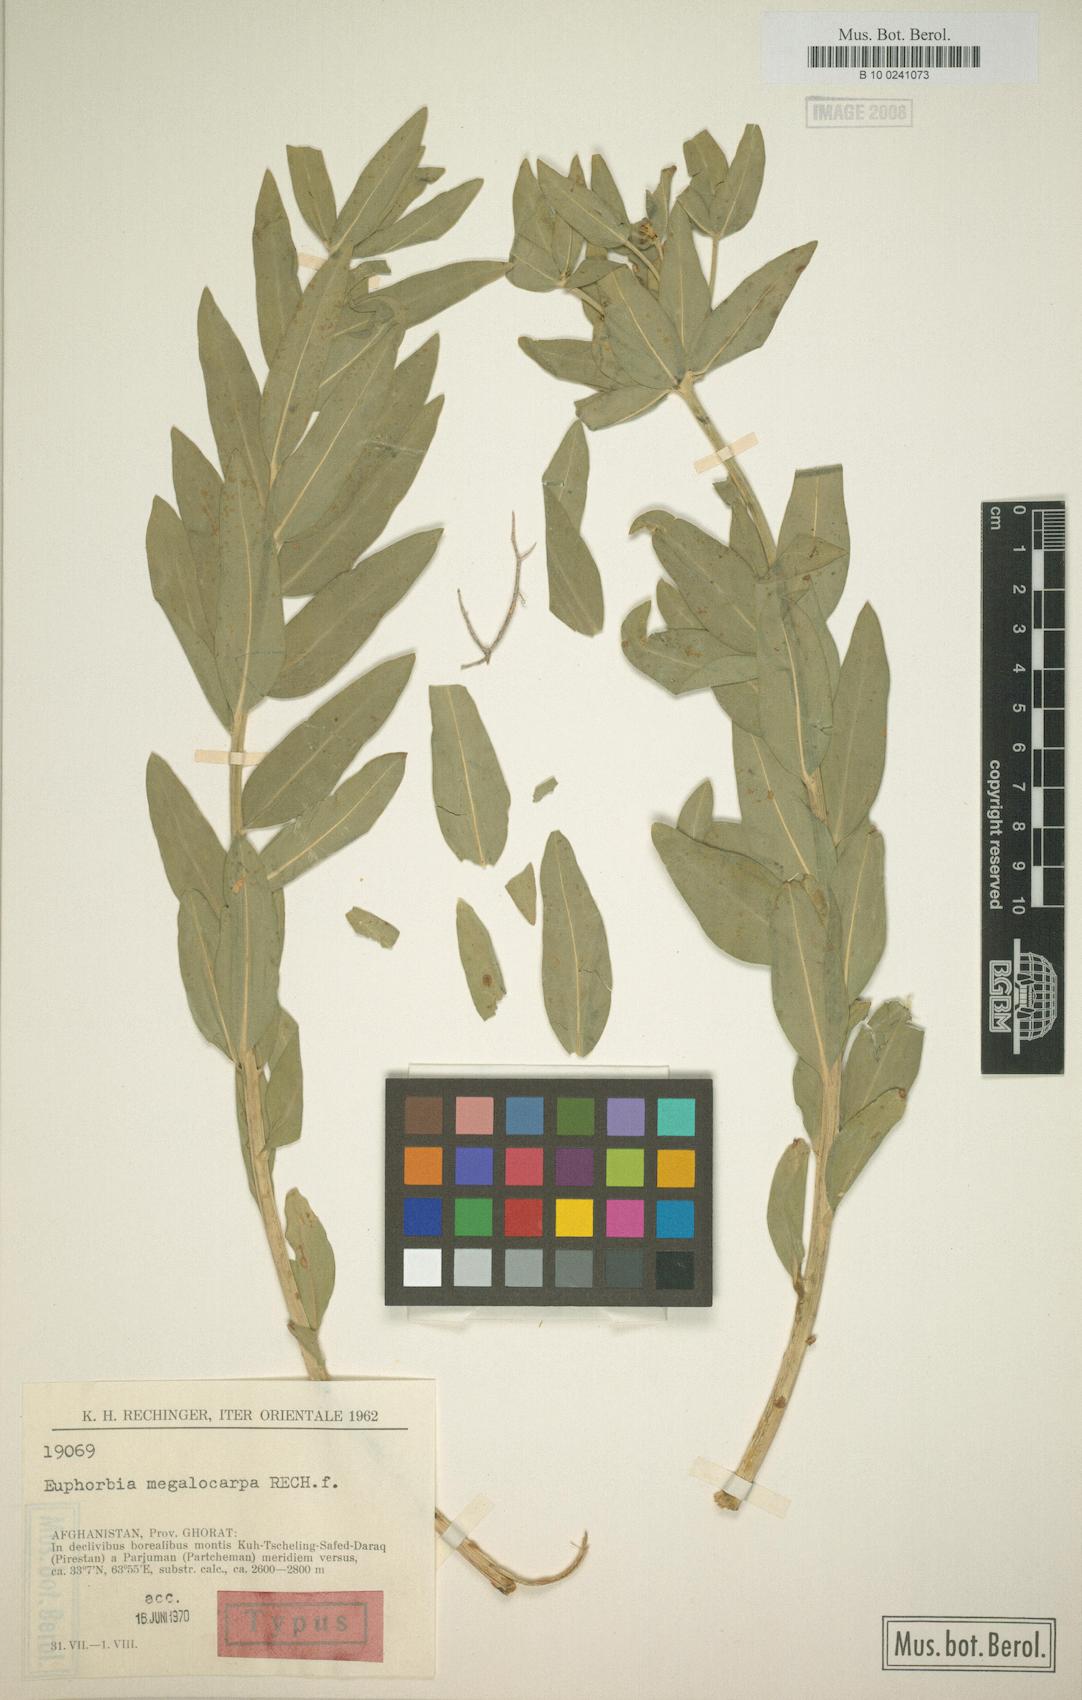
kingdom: Plantae
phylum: Tracheophyta
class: Magnoliopsida
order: Malpighiales
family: Euphorbiaceae
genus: Euphorbia
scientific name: Euphorbia megalocarpa
